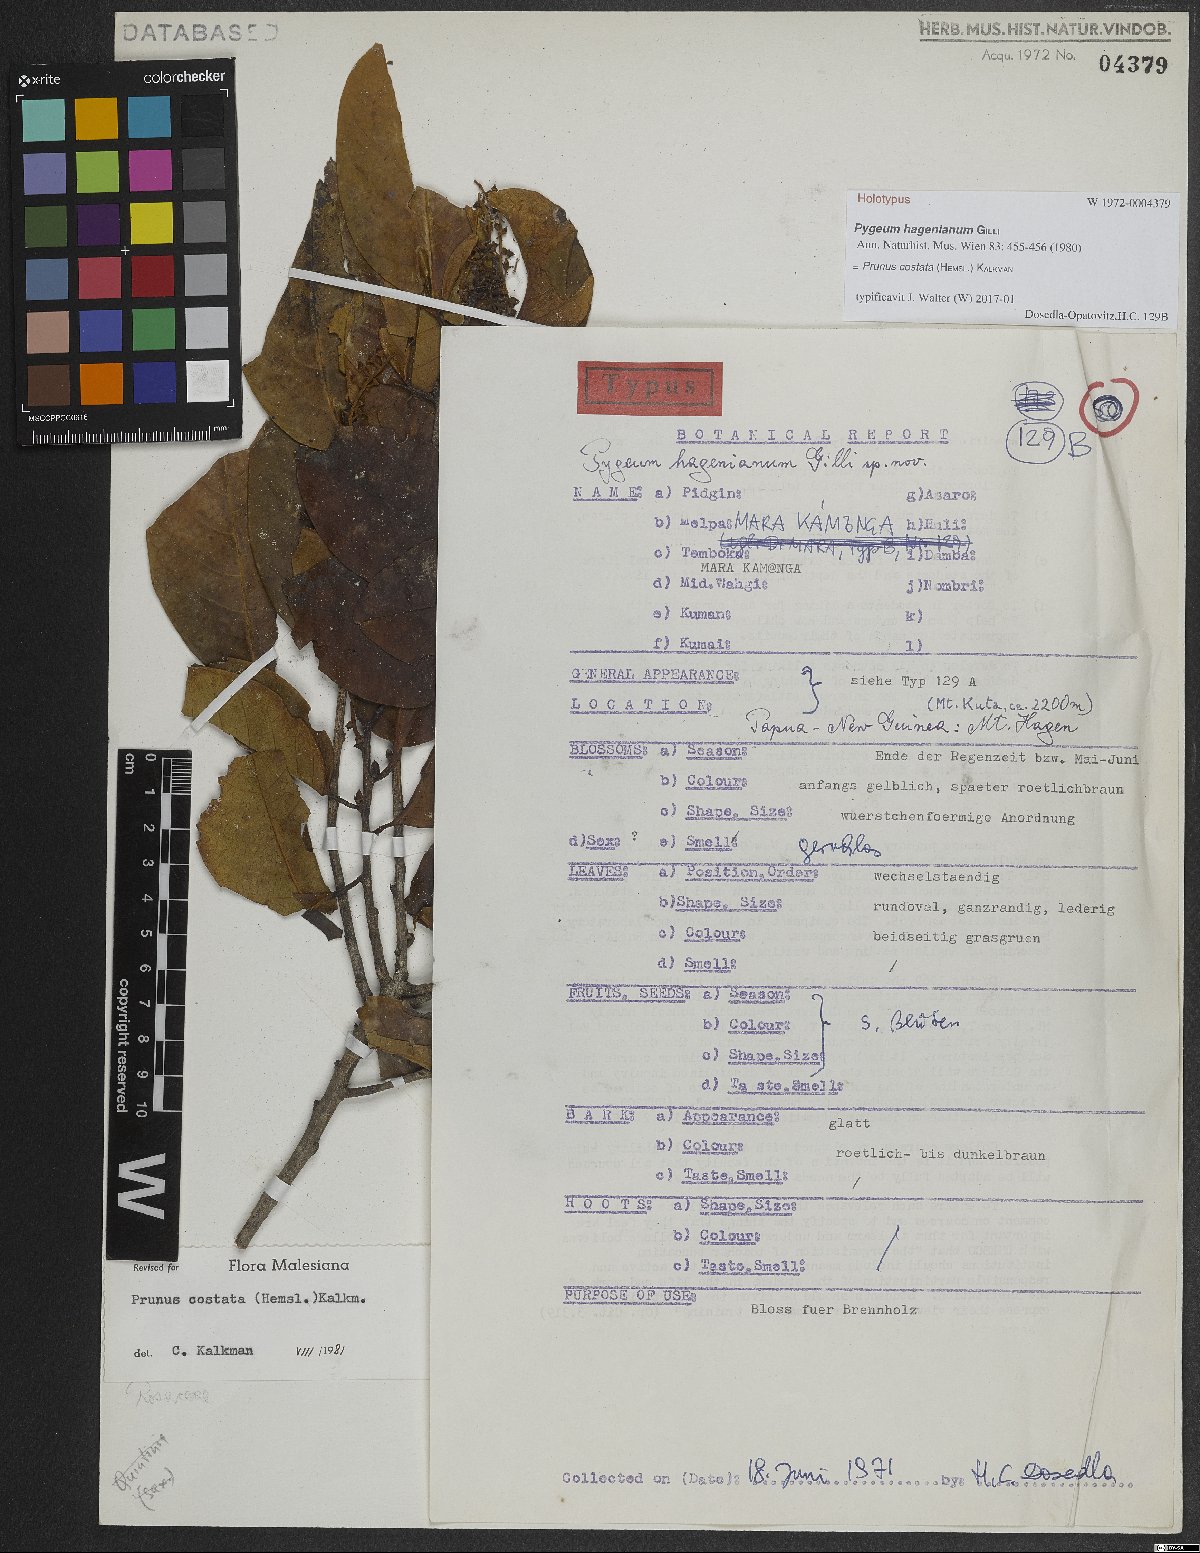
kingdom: Plantae
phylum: Tracheophyta
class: Magnoliopsida
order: Rosales
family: Rosaceae
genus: Prunus
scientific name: Prunus costata
